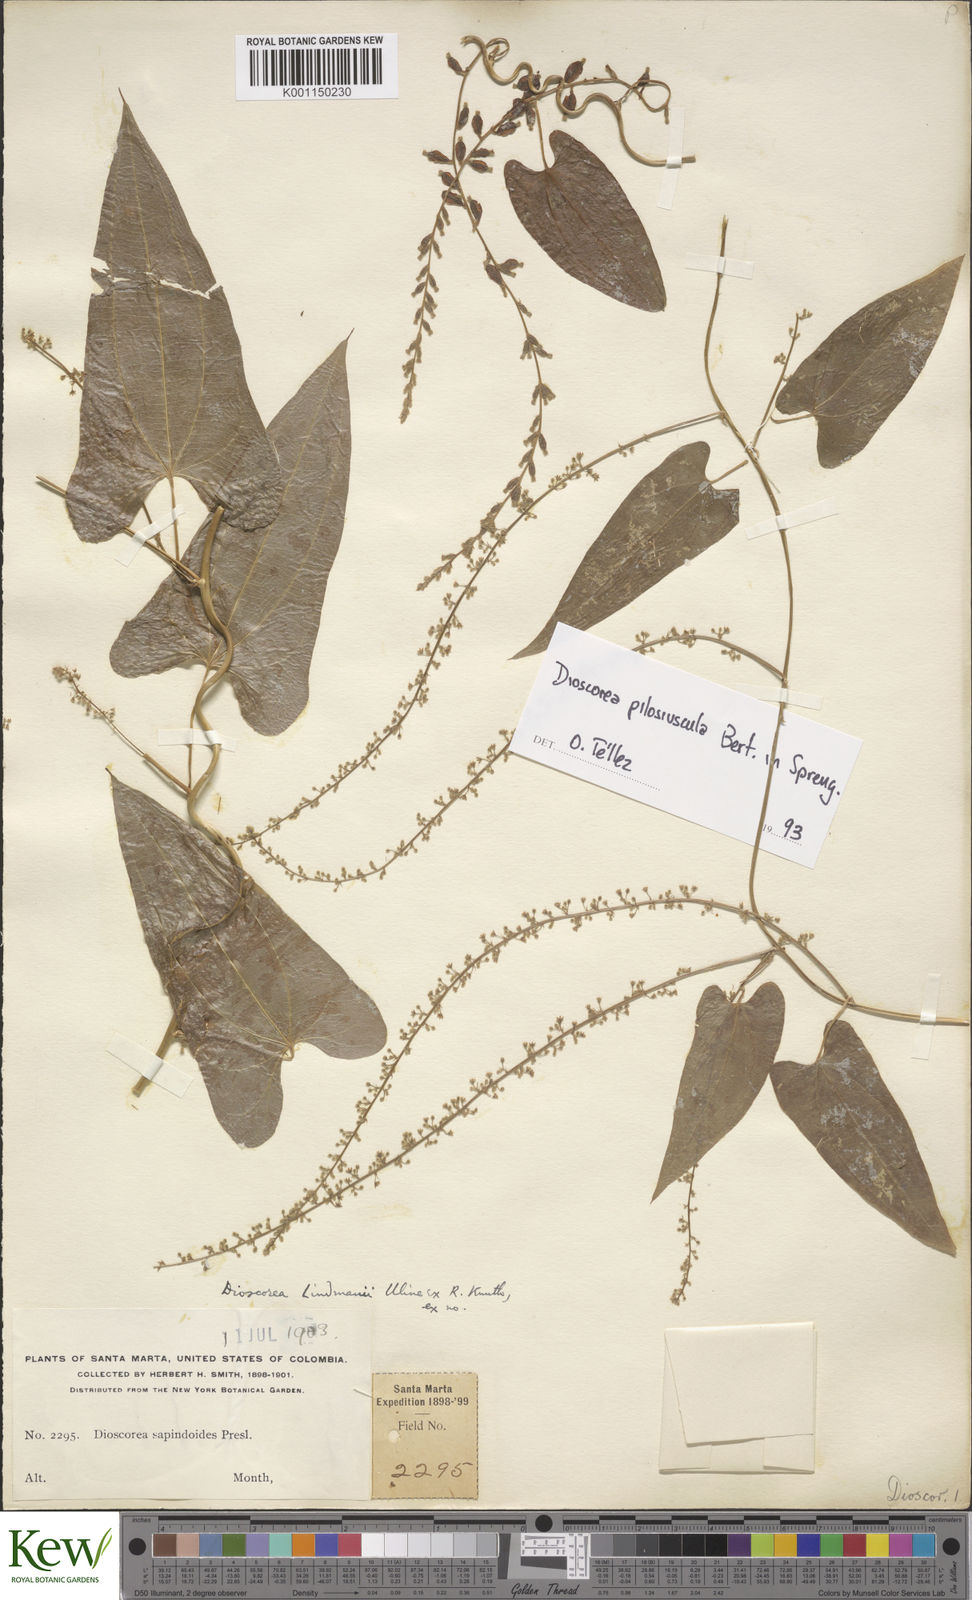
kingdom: Plantae
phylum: Tracheophyta
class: Liliopsida
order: Dioscoreales
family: Dioscoreaceae
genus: Dioscorea
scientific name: Dioscorea pilosiuscula
